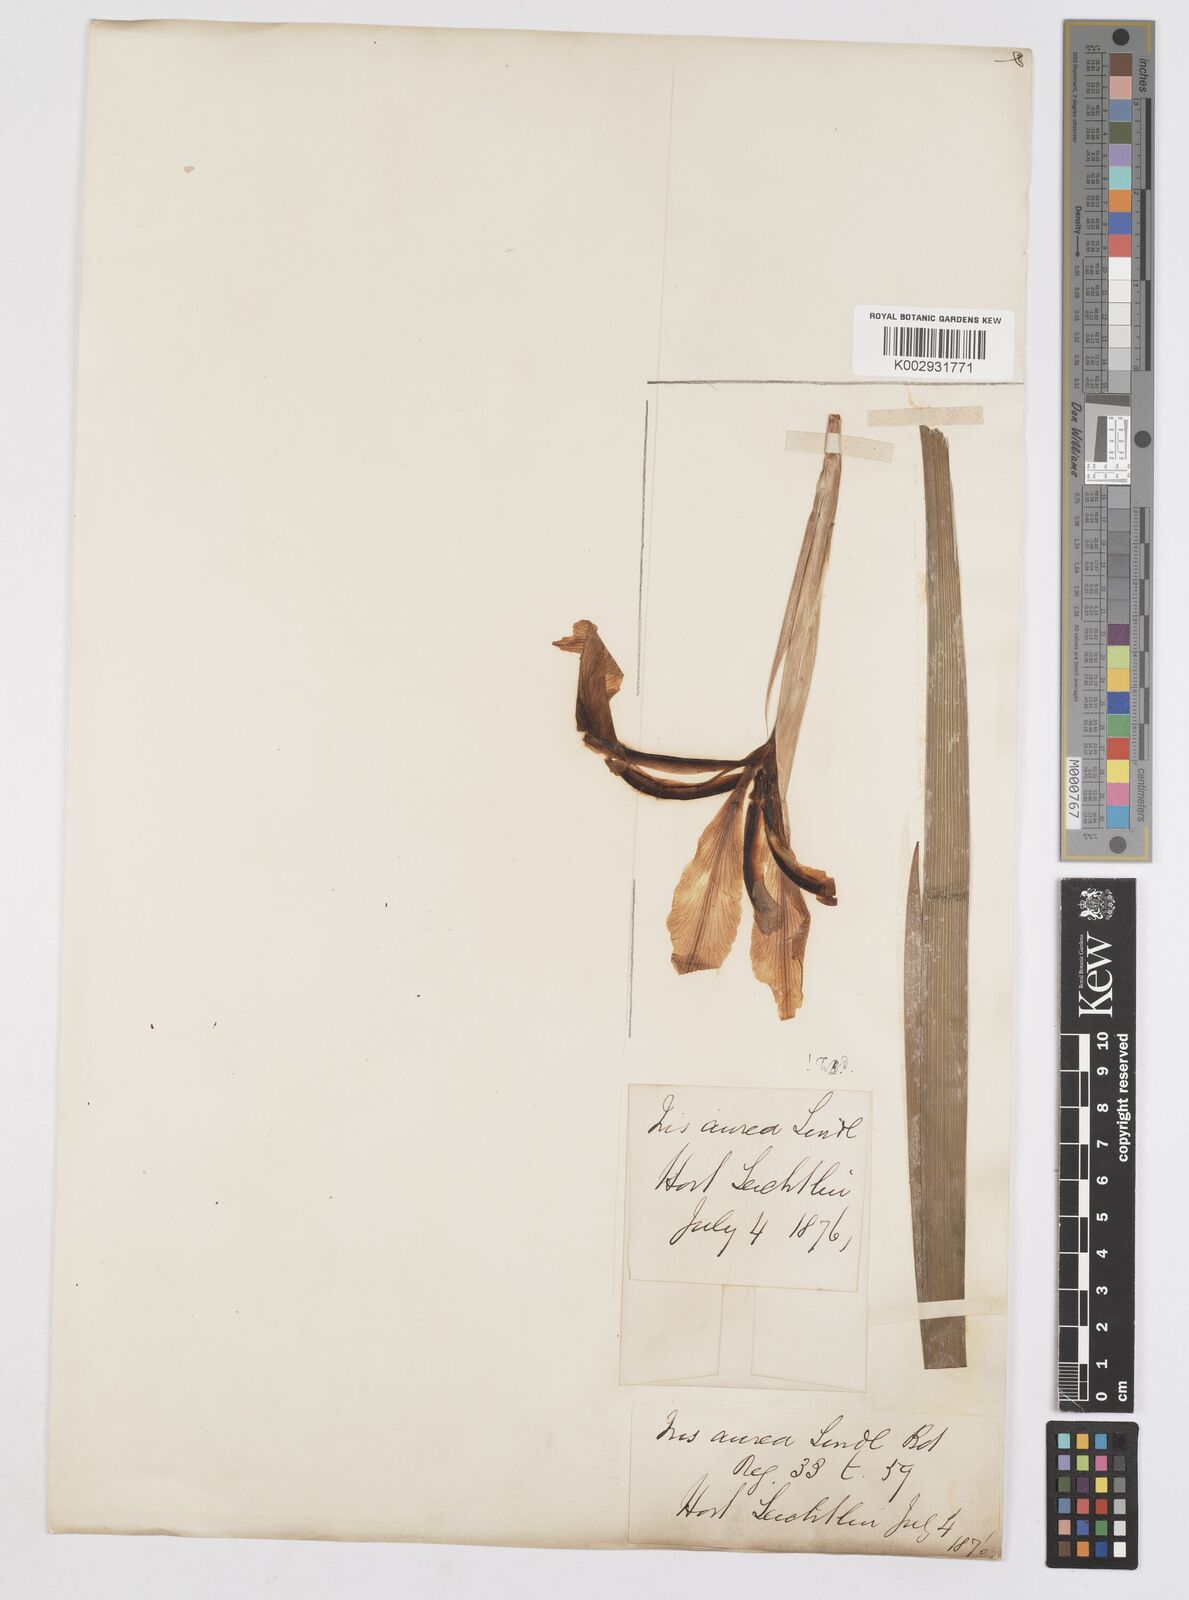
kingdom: Plantae
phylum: Tracheophyta
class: Liliopsida
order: Asparagales
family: Iridaceae
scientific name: Iridaceae
